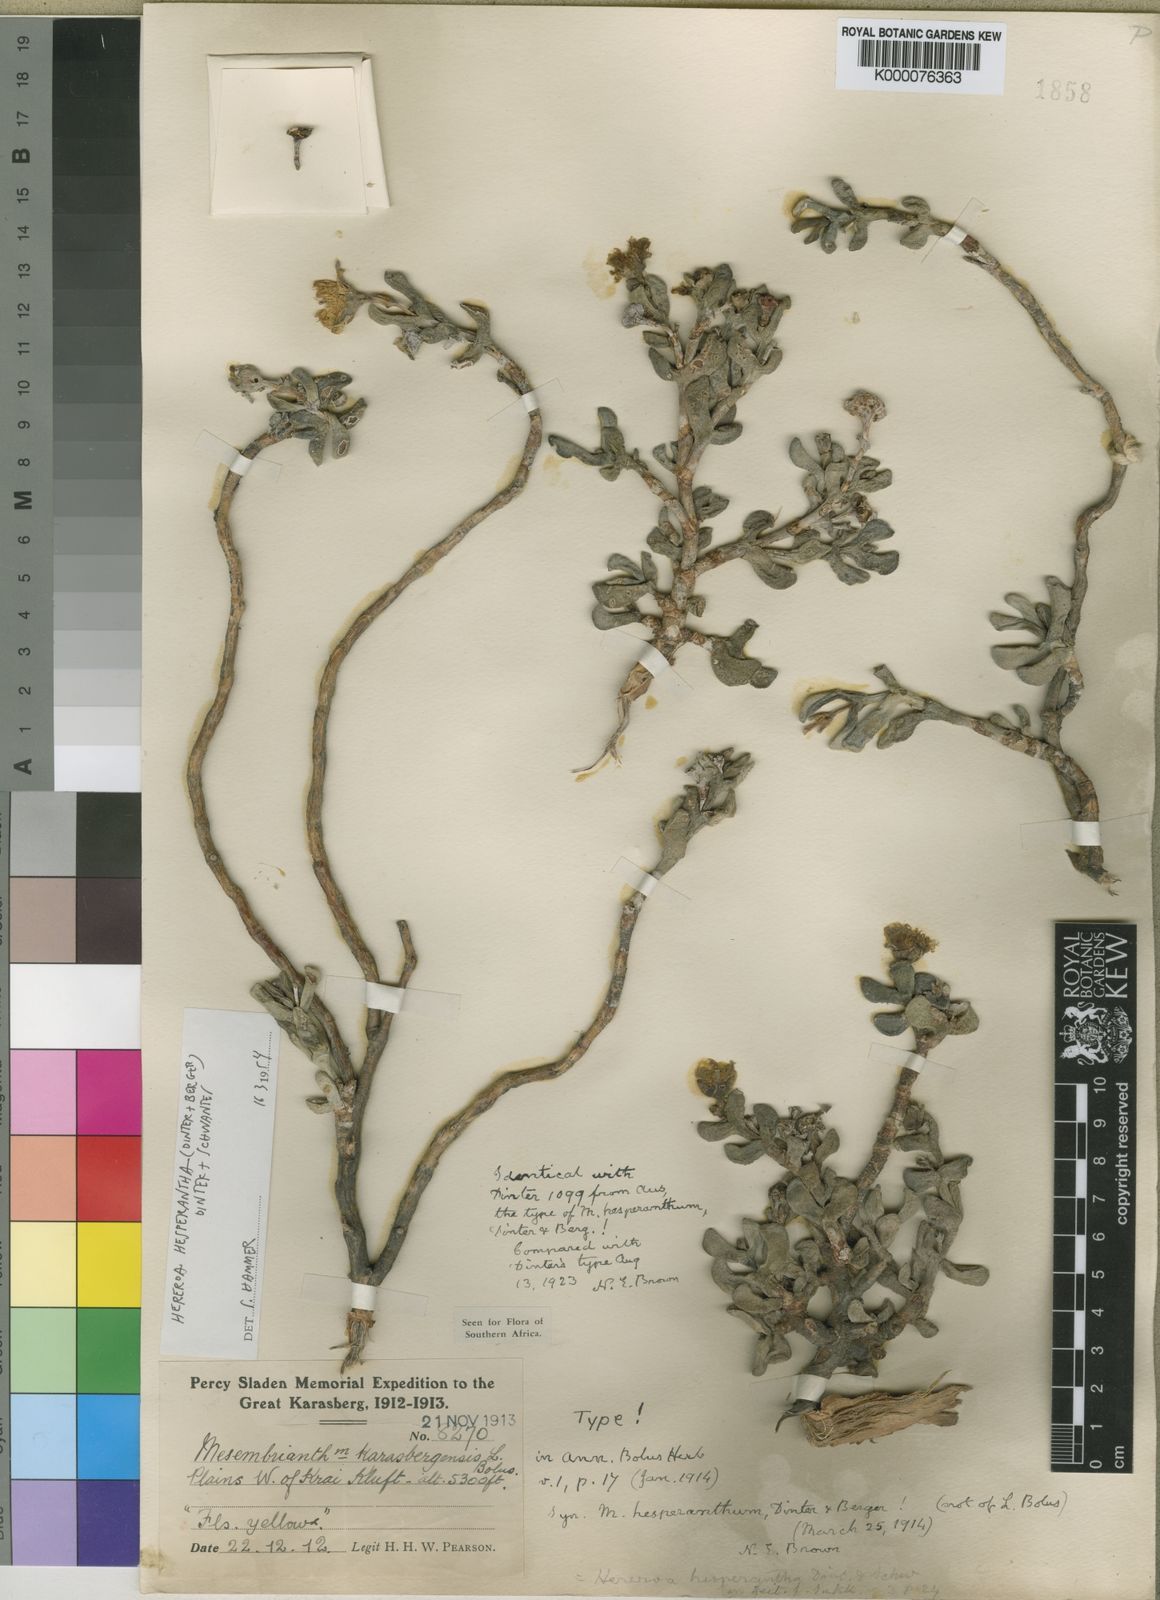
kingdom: Plantae
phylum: Tracheophyta
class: Magnoliopsida
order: Caryophyllales
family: Aizoaceae
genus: Dracophilus
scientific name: Dracophilus Hereroa hesperantha
